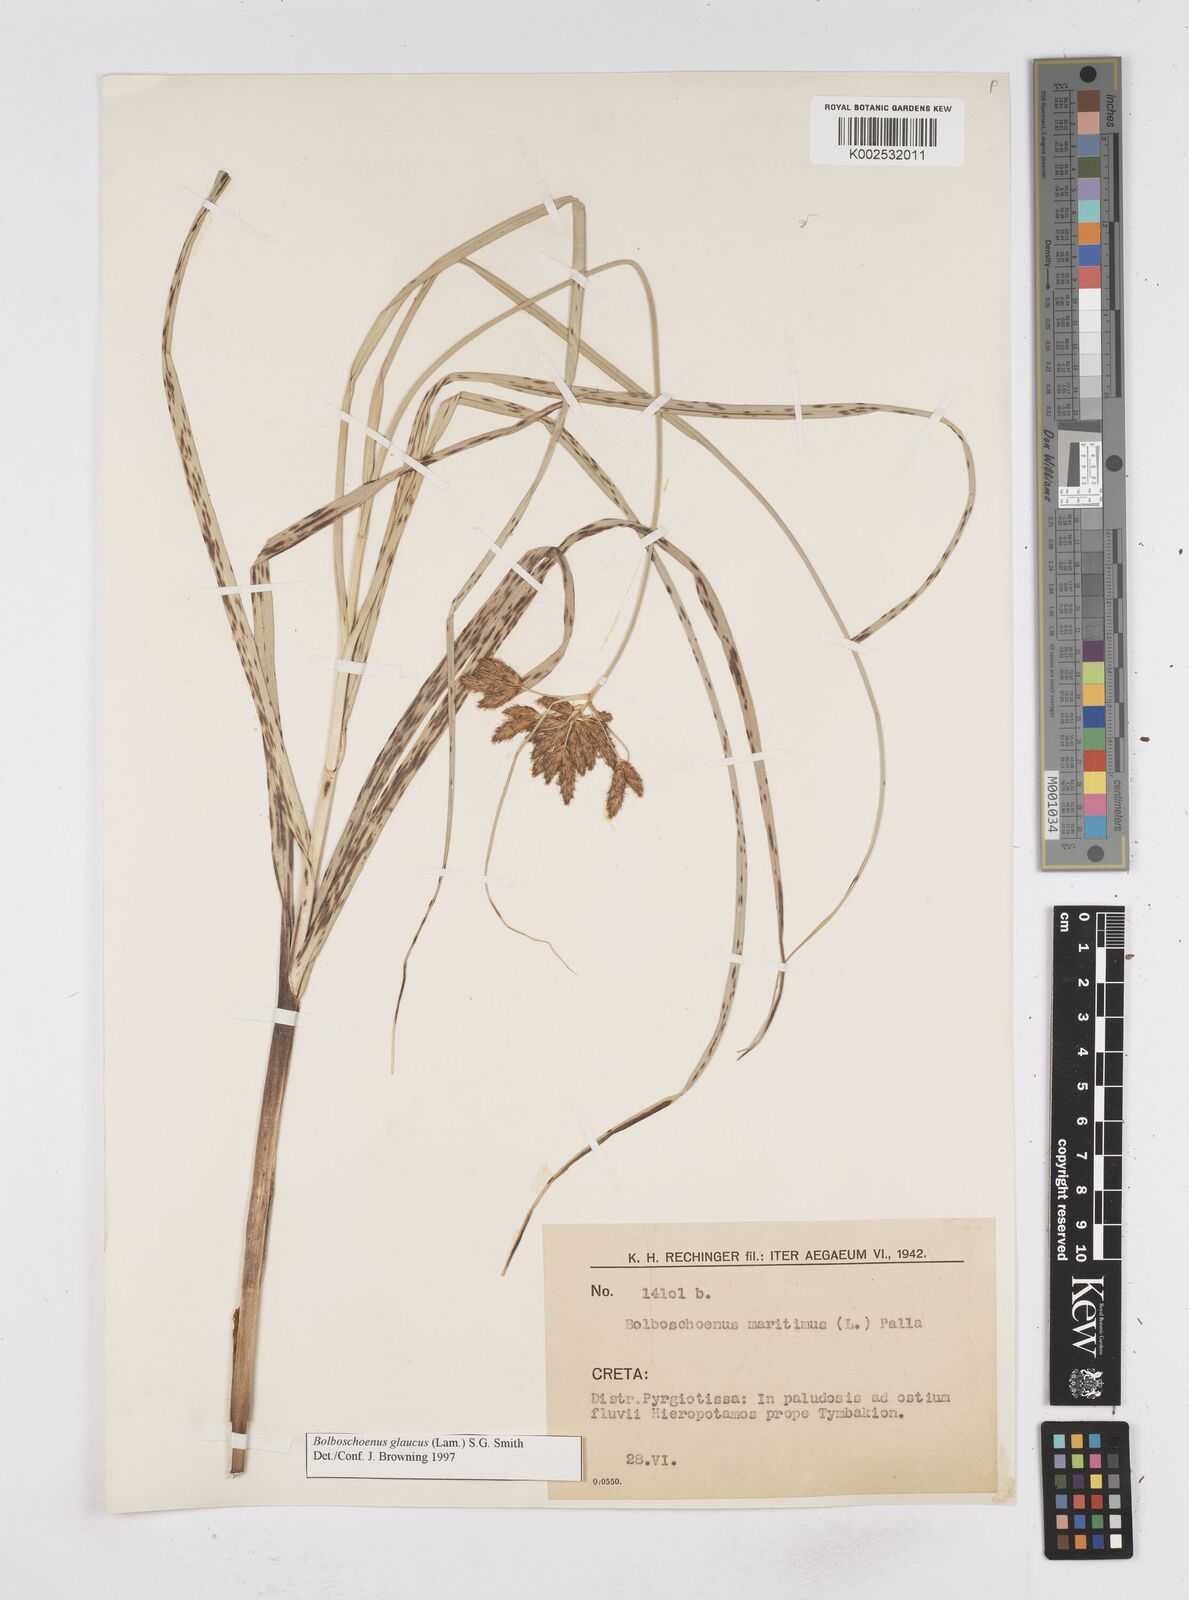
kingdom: Plantae
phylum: Tracheophyta
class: Liliopsida
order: Poales
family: Cyperaceae
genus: Bolboschoenus
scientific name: Bolboschoenus maritimus
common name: Sea club-rush
